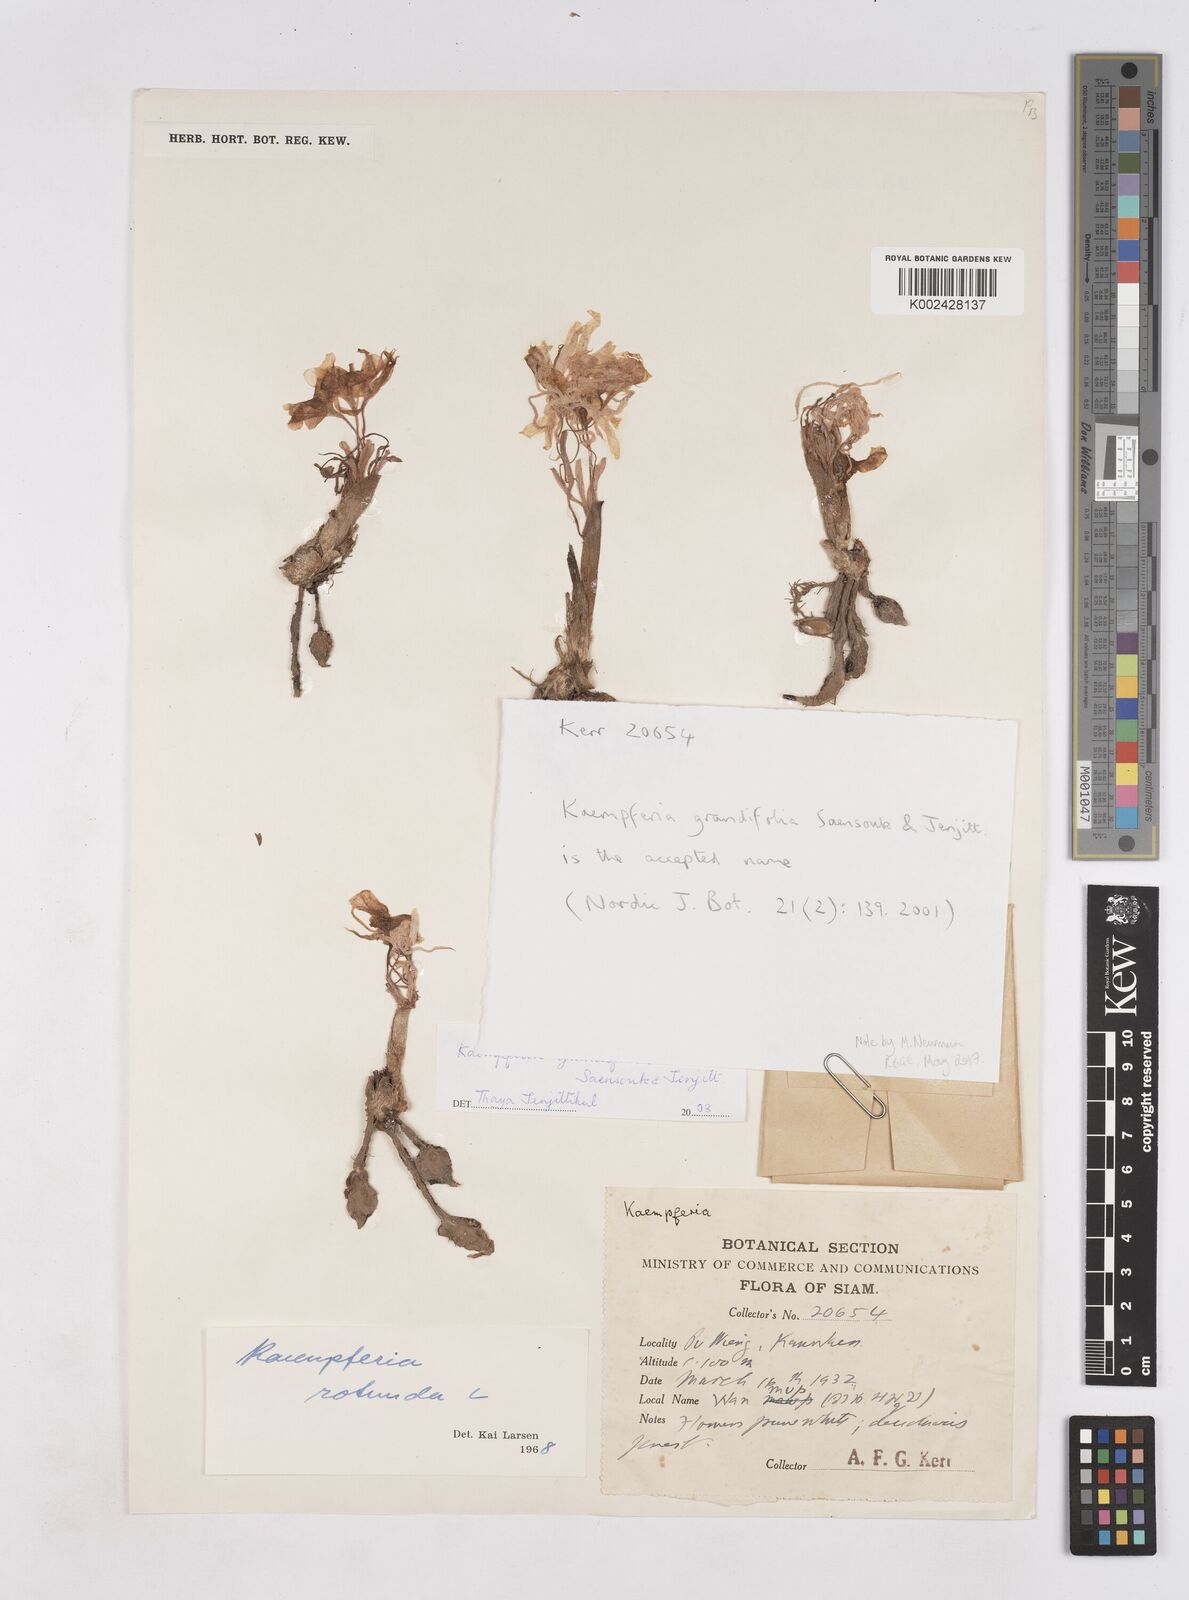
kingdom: Plantae
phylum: Tracheophyta
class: Liliopsida
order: Zingiberales
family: Zingiberaceae
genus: Kaempferia
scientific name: Kaempferia grandifolia
